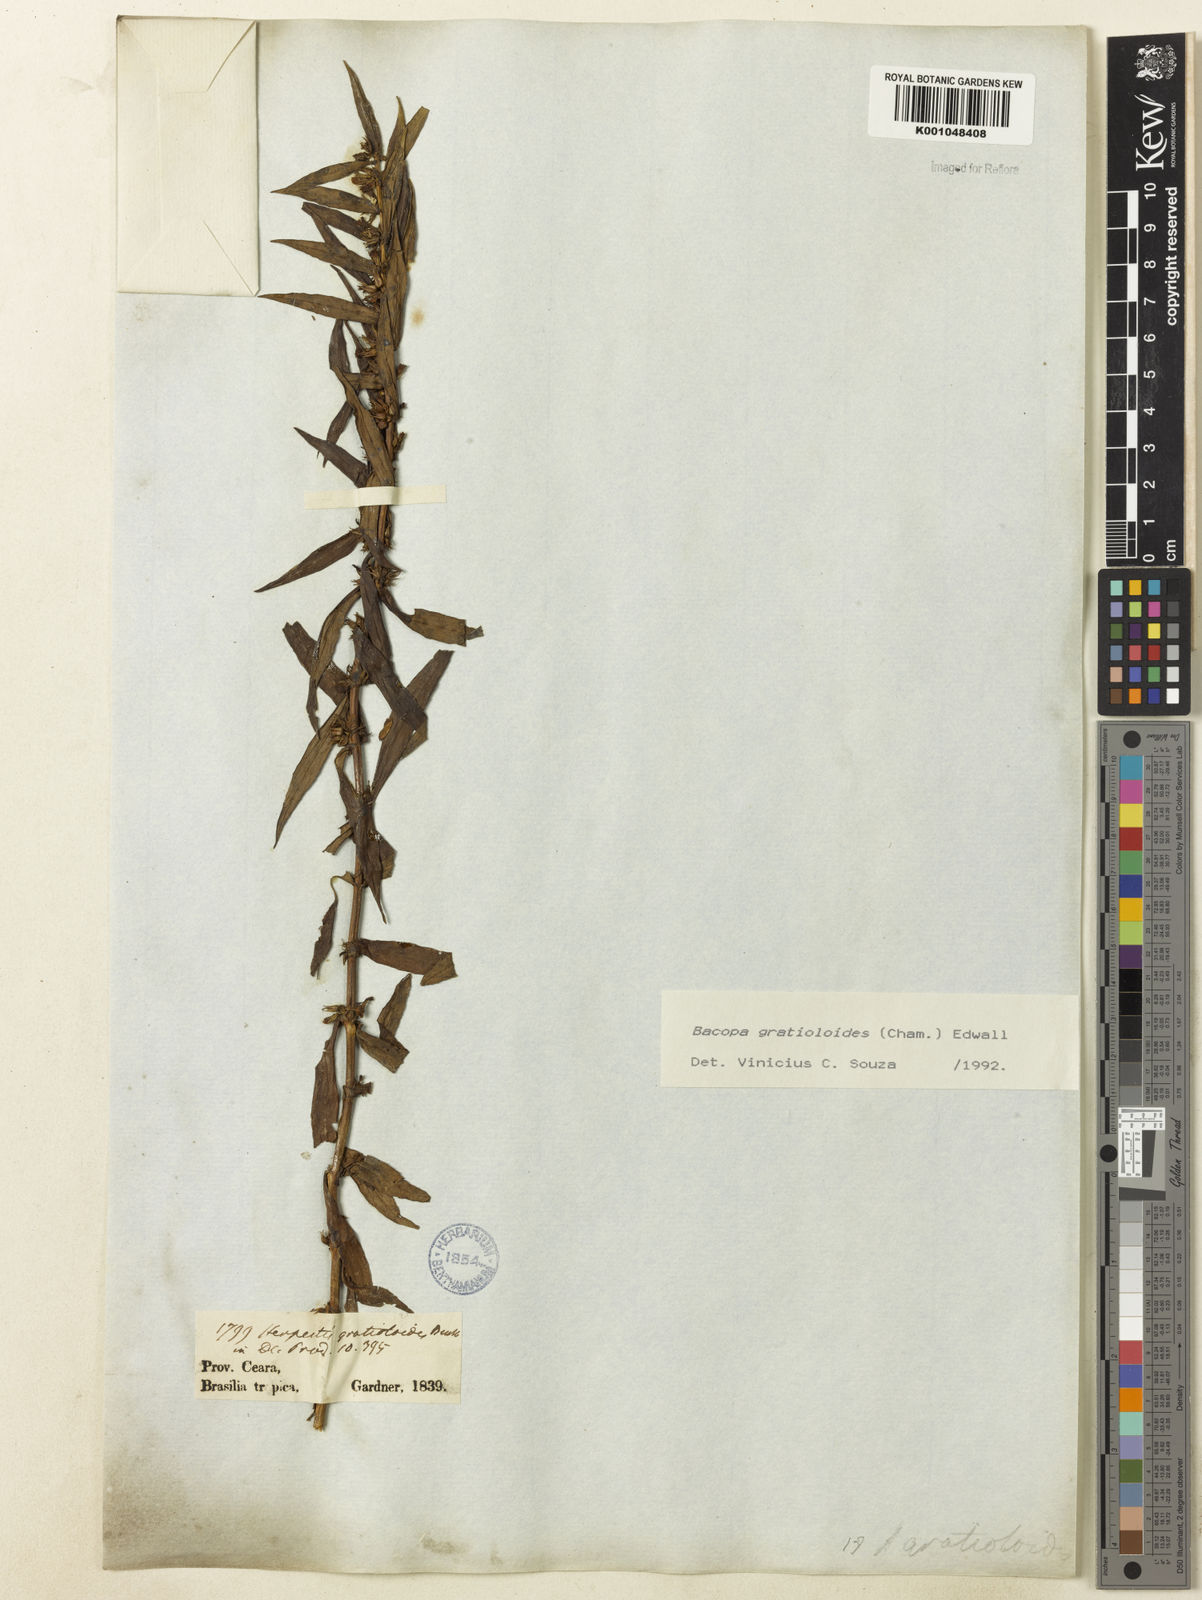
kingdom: Plantae
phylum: Tracheophyta
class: Magnoliopsida
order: Lamiales
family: Plantaginaceae
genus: Bacopa
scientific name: Bacopa
